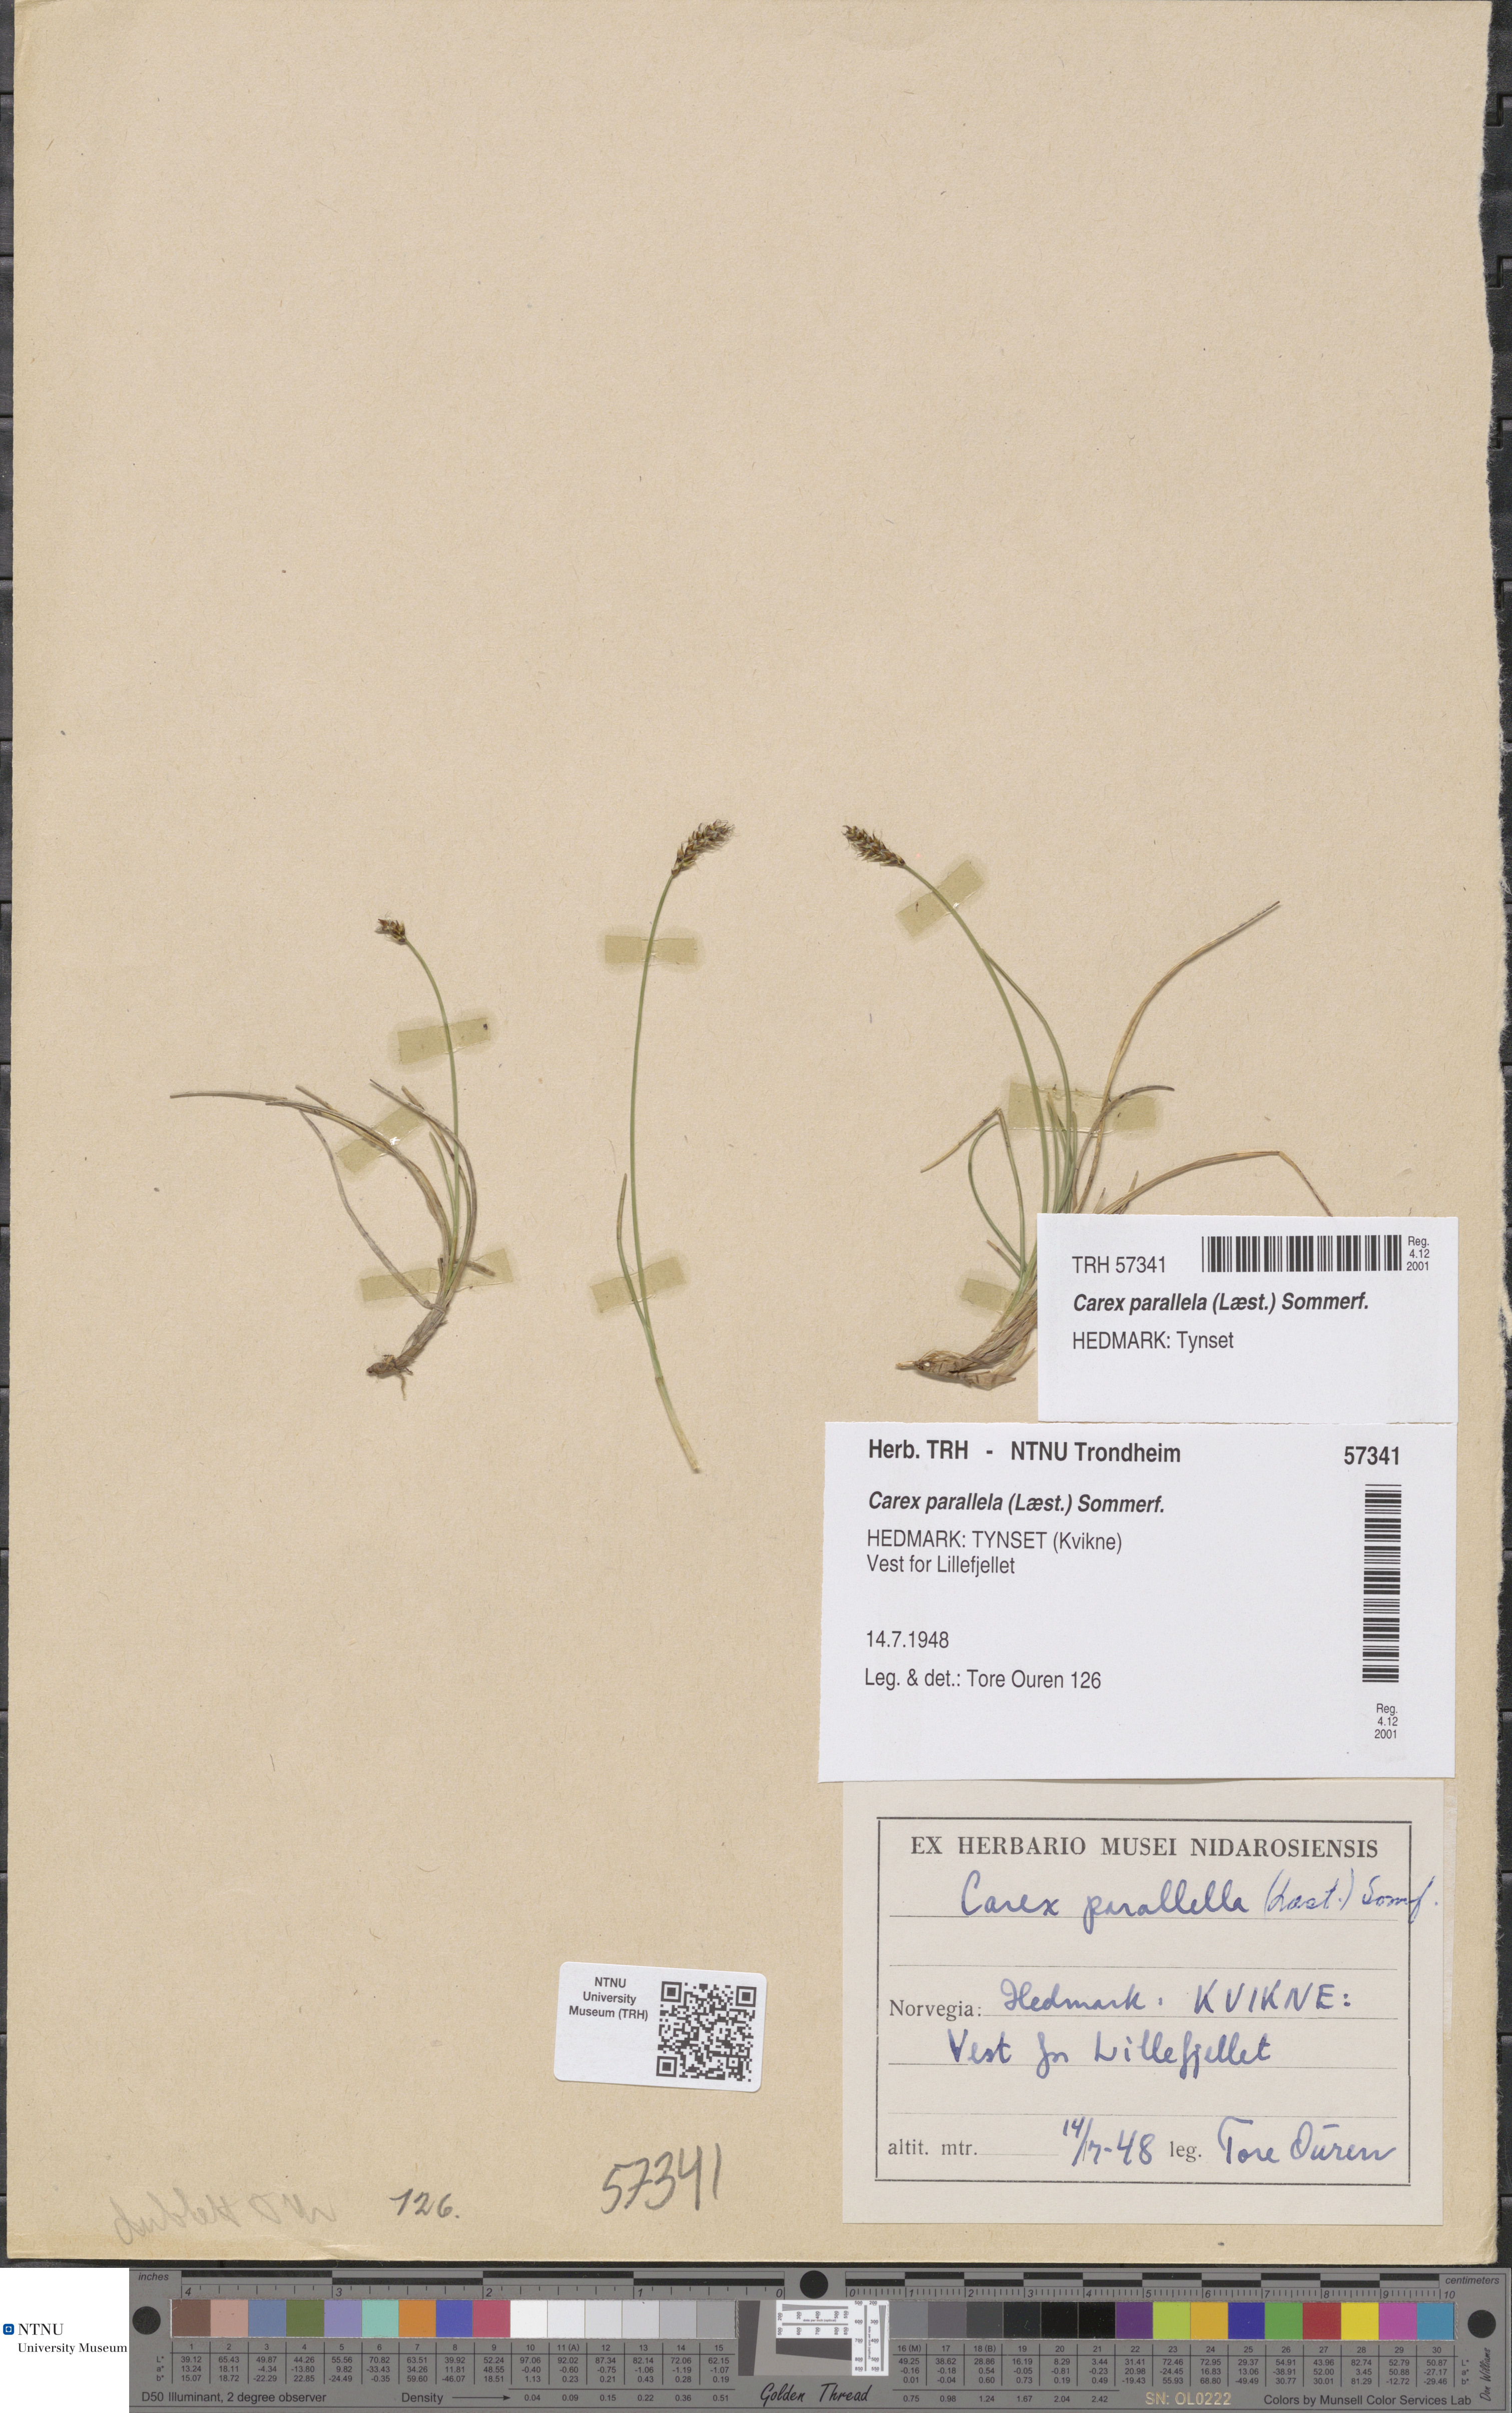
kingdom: Plantae
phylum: Tracheophyta
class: Liliopsida
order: Poales
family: Cyperaceae
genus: Carex
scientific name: Carex parallela
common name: Parallel sedge
